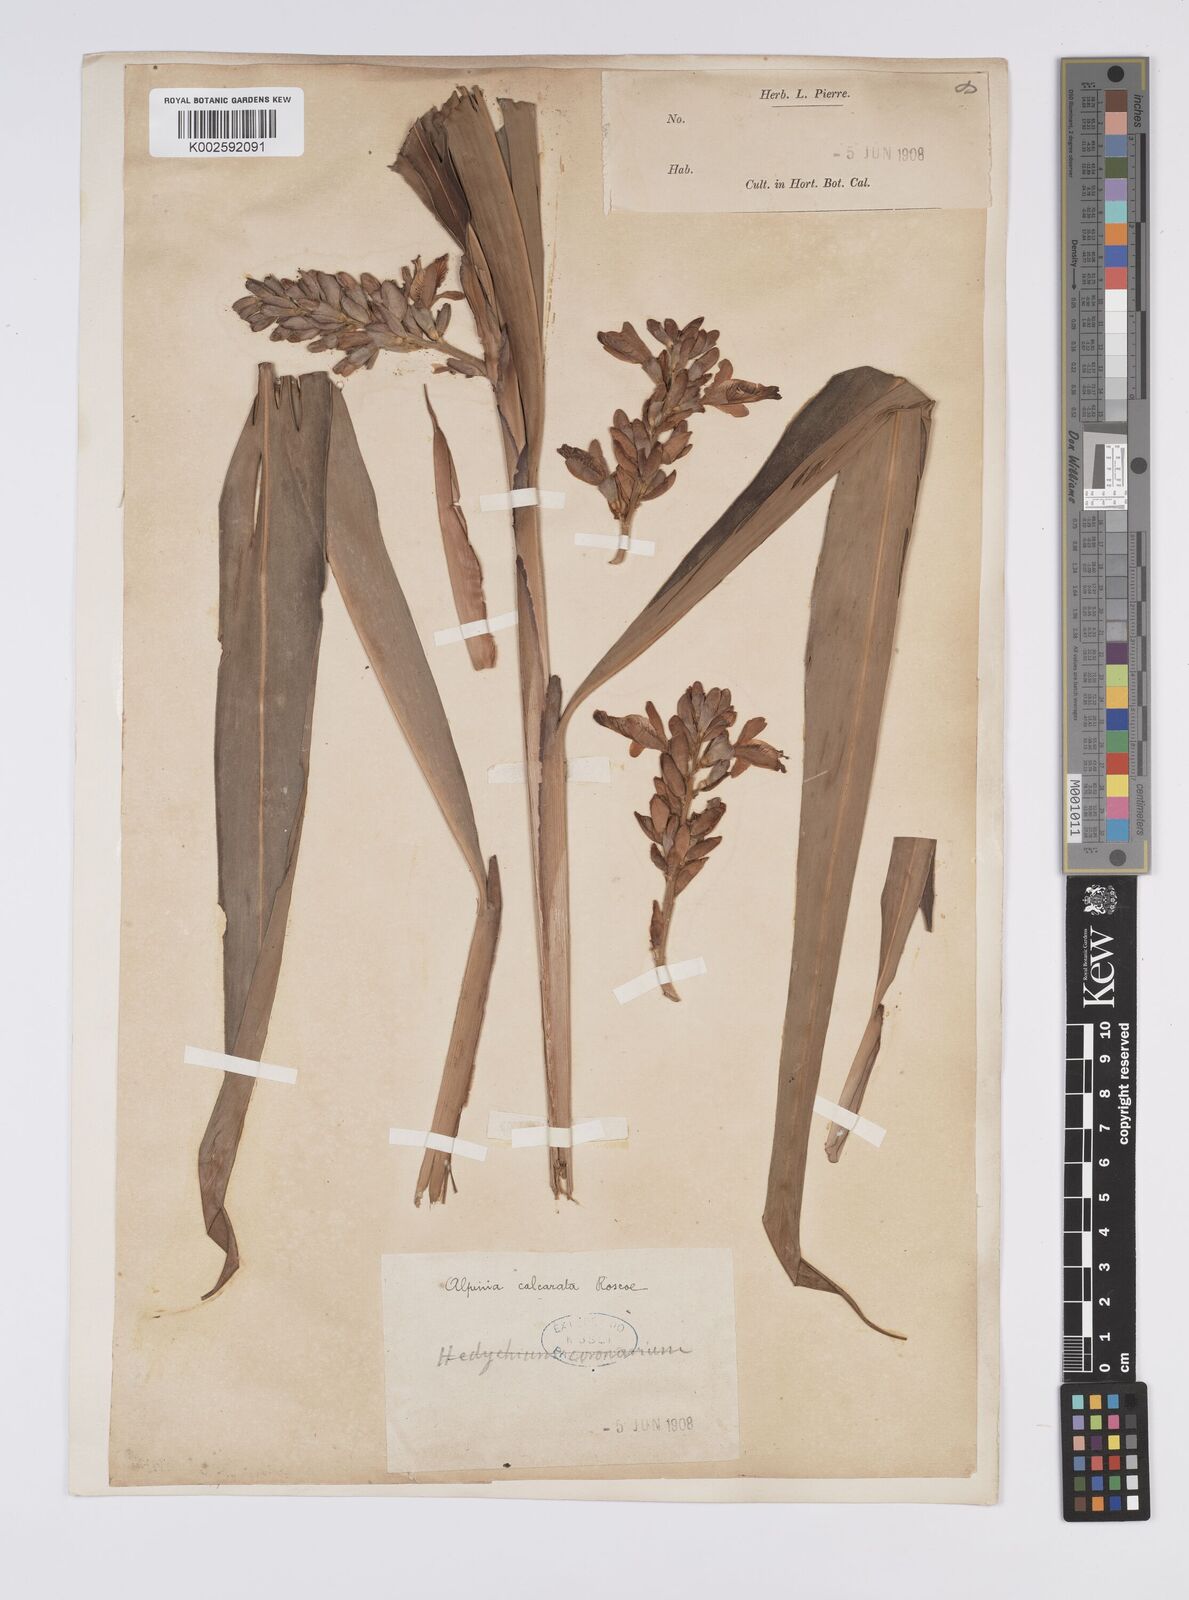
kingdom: Plantae
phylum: Tracheophyta
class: Liliopsida
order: Zingiberales
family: Zingiberaceae
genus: Alpinia
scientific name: Alpinia calcarata
